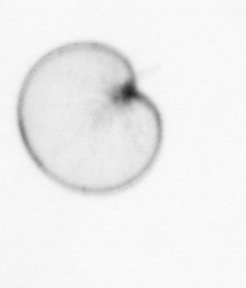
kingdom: Chromista
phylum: Myzozoa
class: Dinophyceae
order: Noctilucales
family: Noctilucaceae
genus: Noctiluca
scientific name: Noctiluca scintillans
